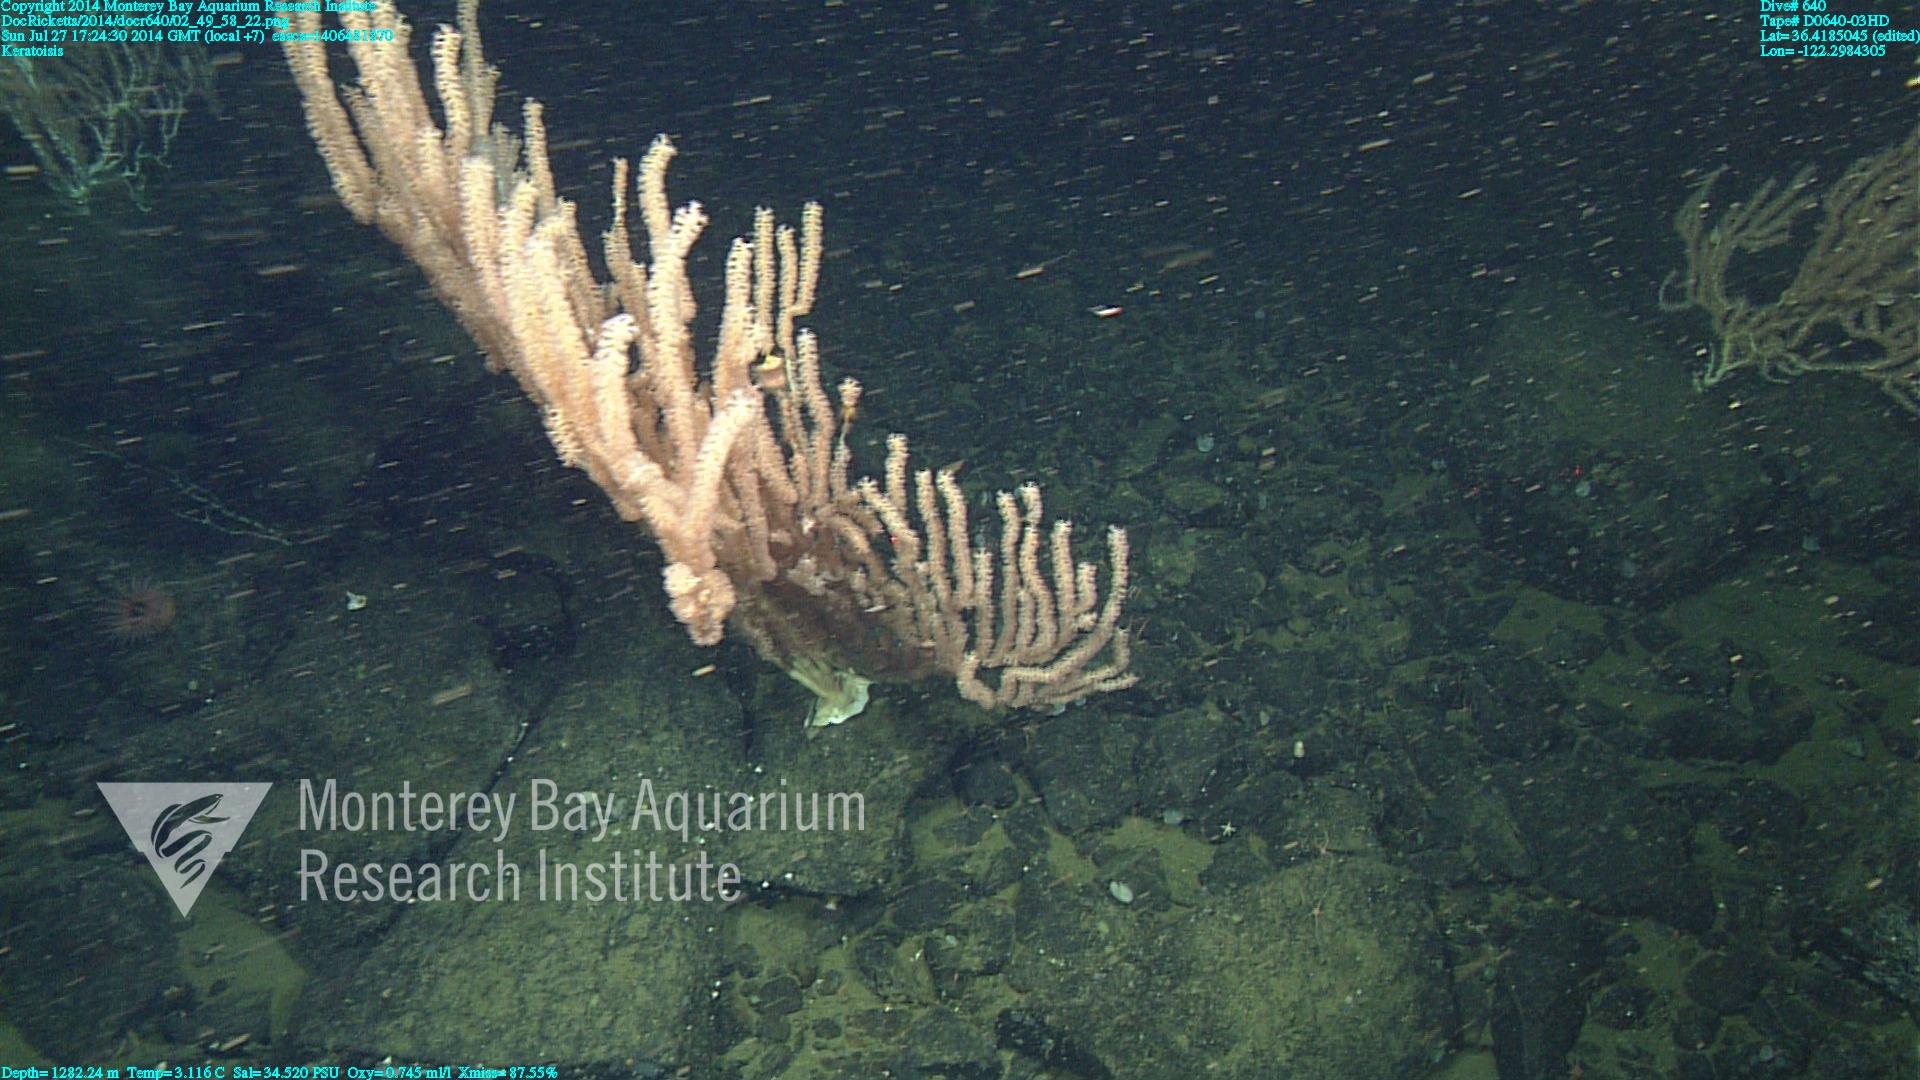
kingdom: Animalia
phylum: Cnidaria
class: Anthozoa
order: Scleralcyonacea
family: Keratoisididae
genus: Keratoisis
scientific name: Keratoisis
